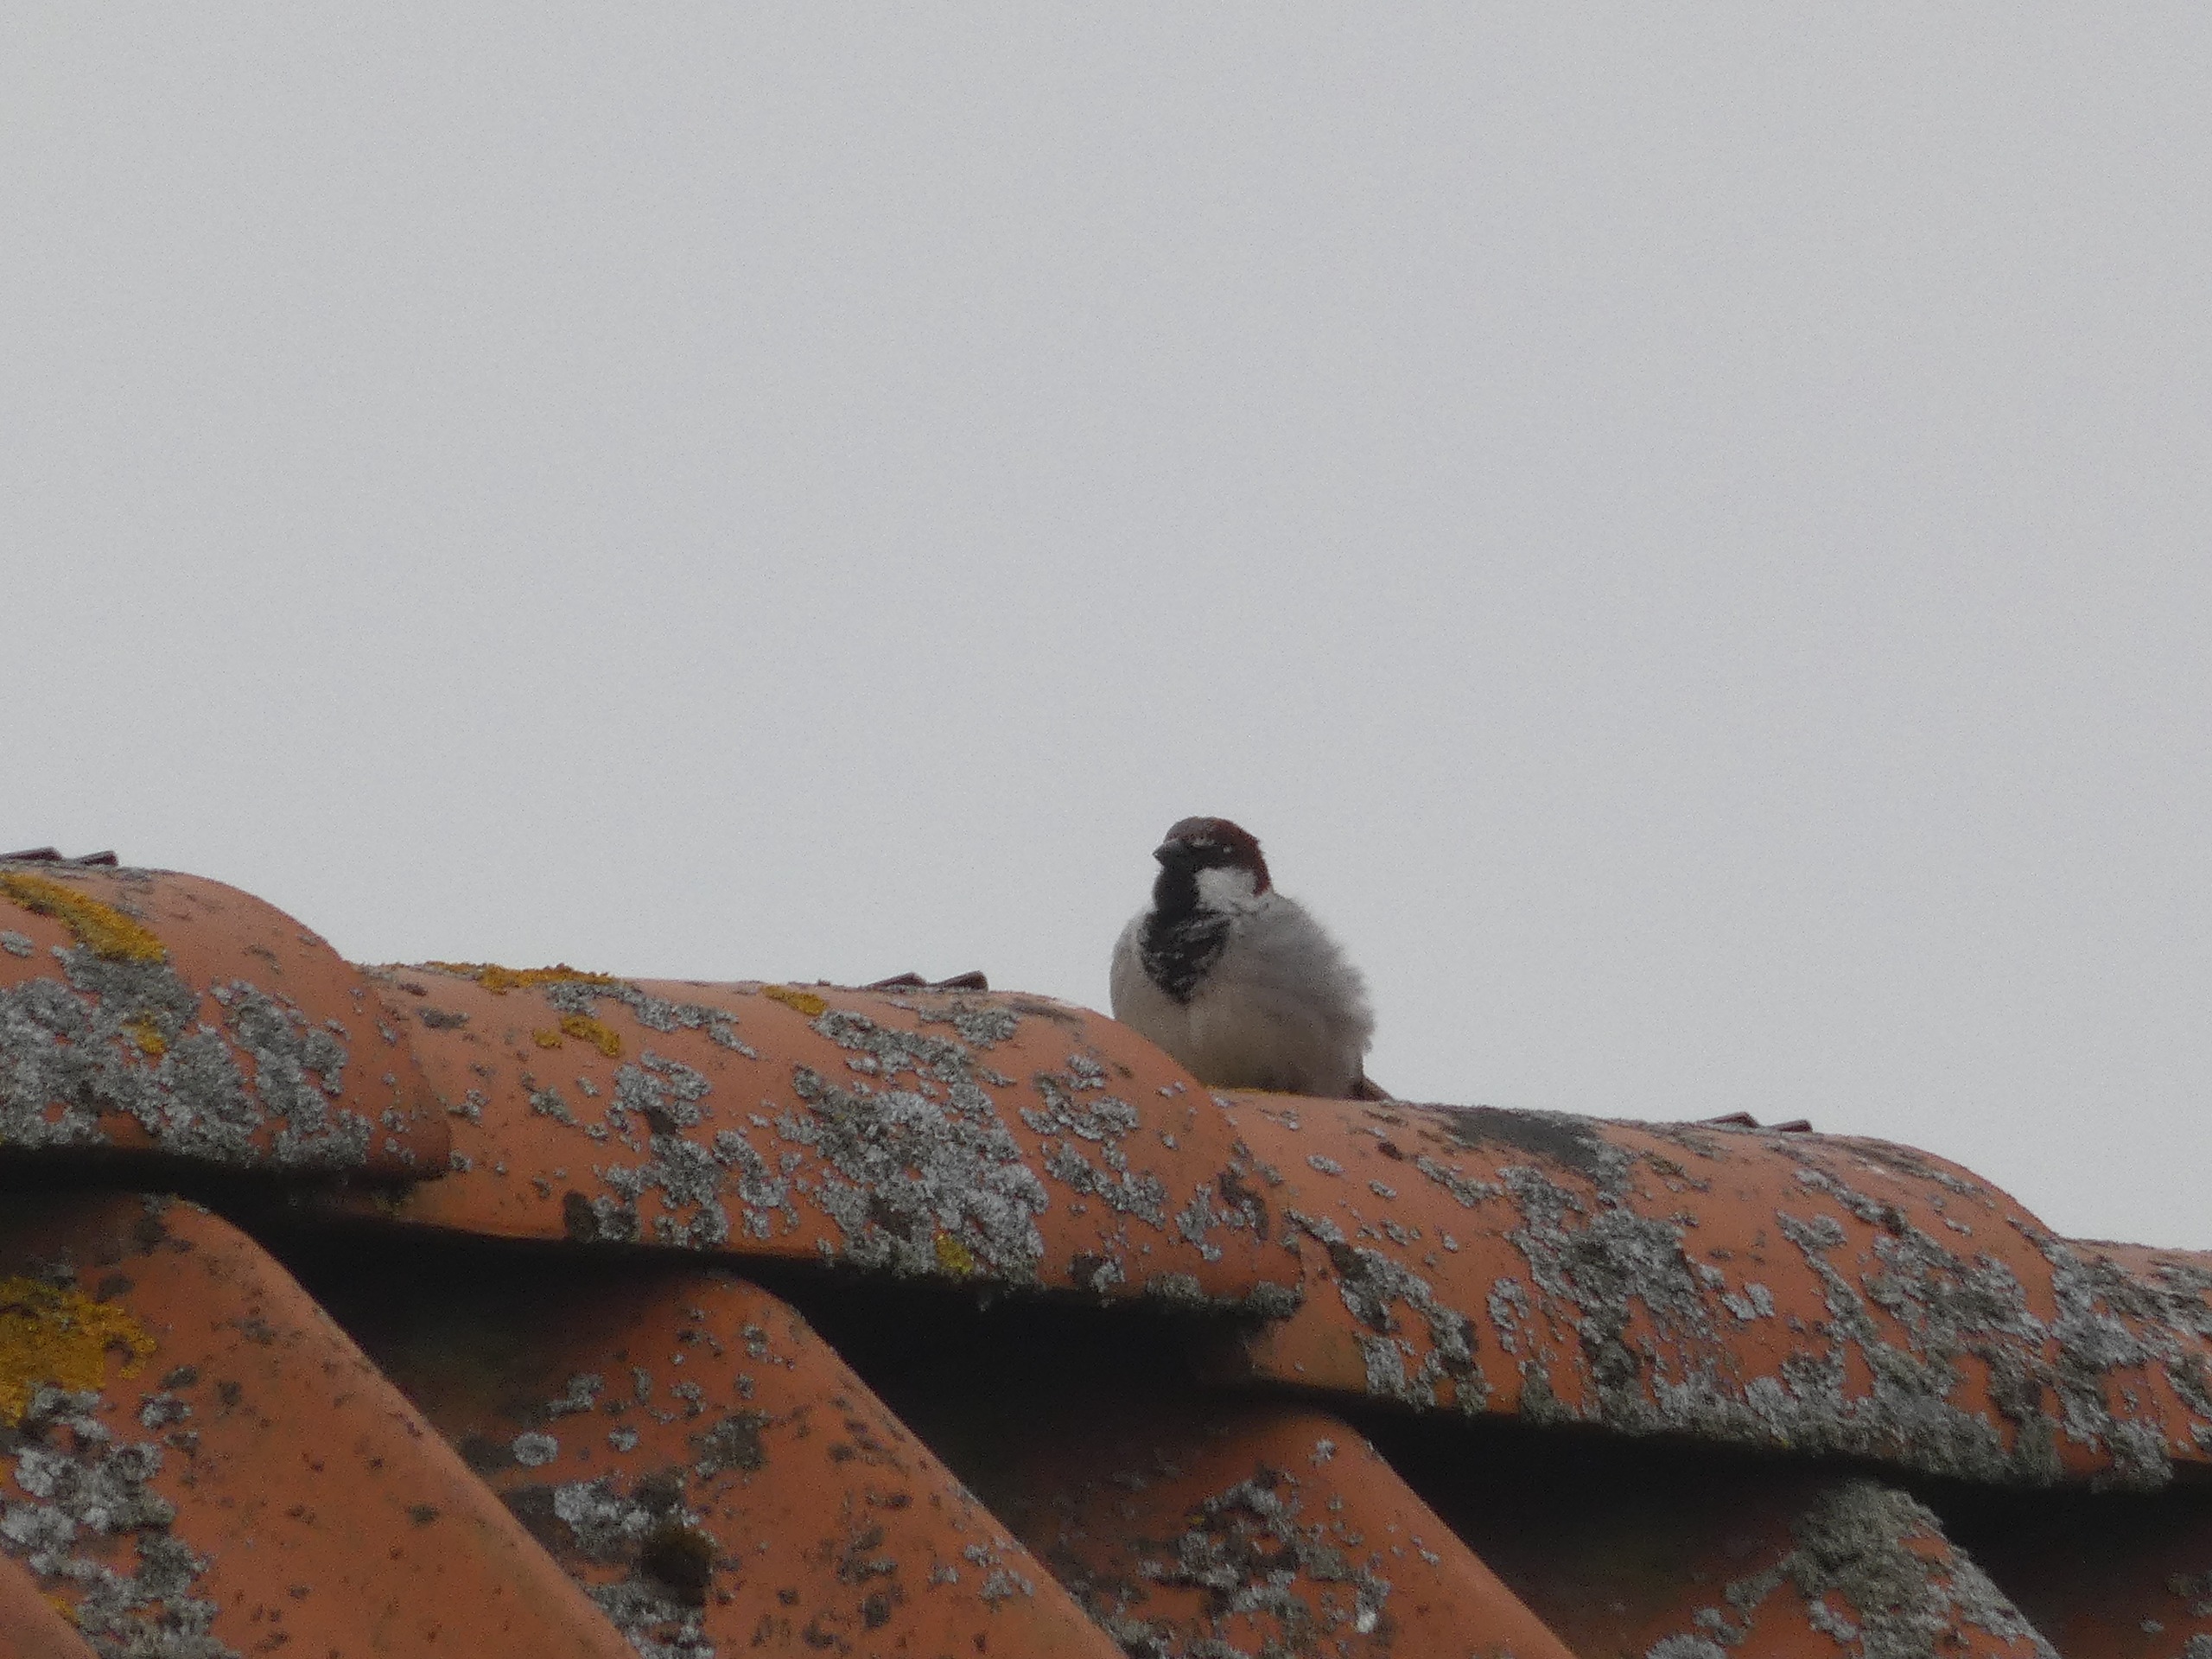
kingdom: Animalia
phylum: Chordata
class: Aves
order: Passeriformes
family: Passeridae
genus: Passer
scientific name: Passer domesticus
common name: Gråspurv
